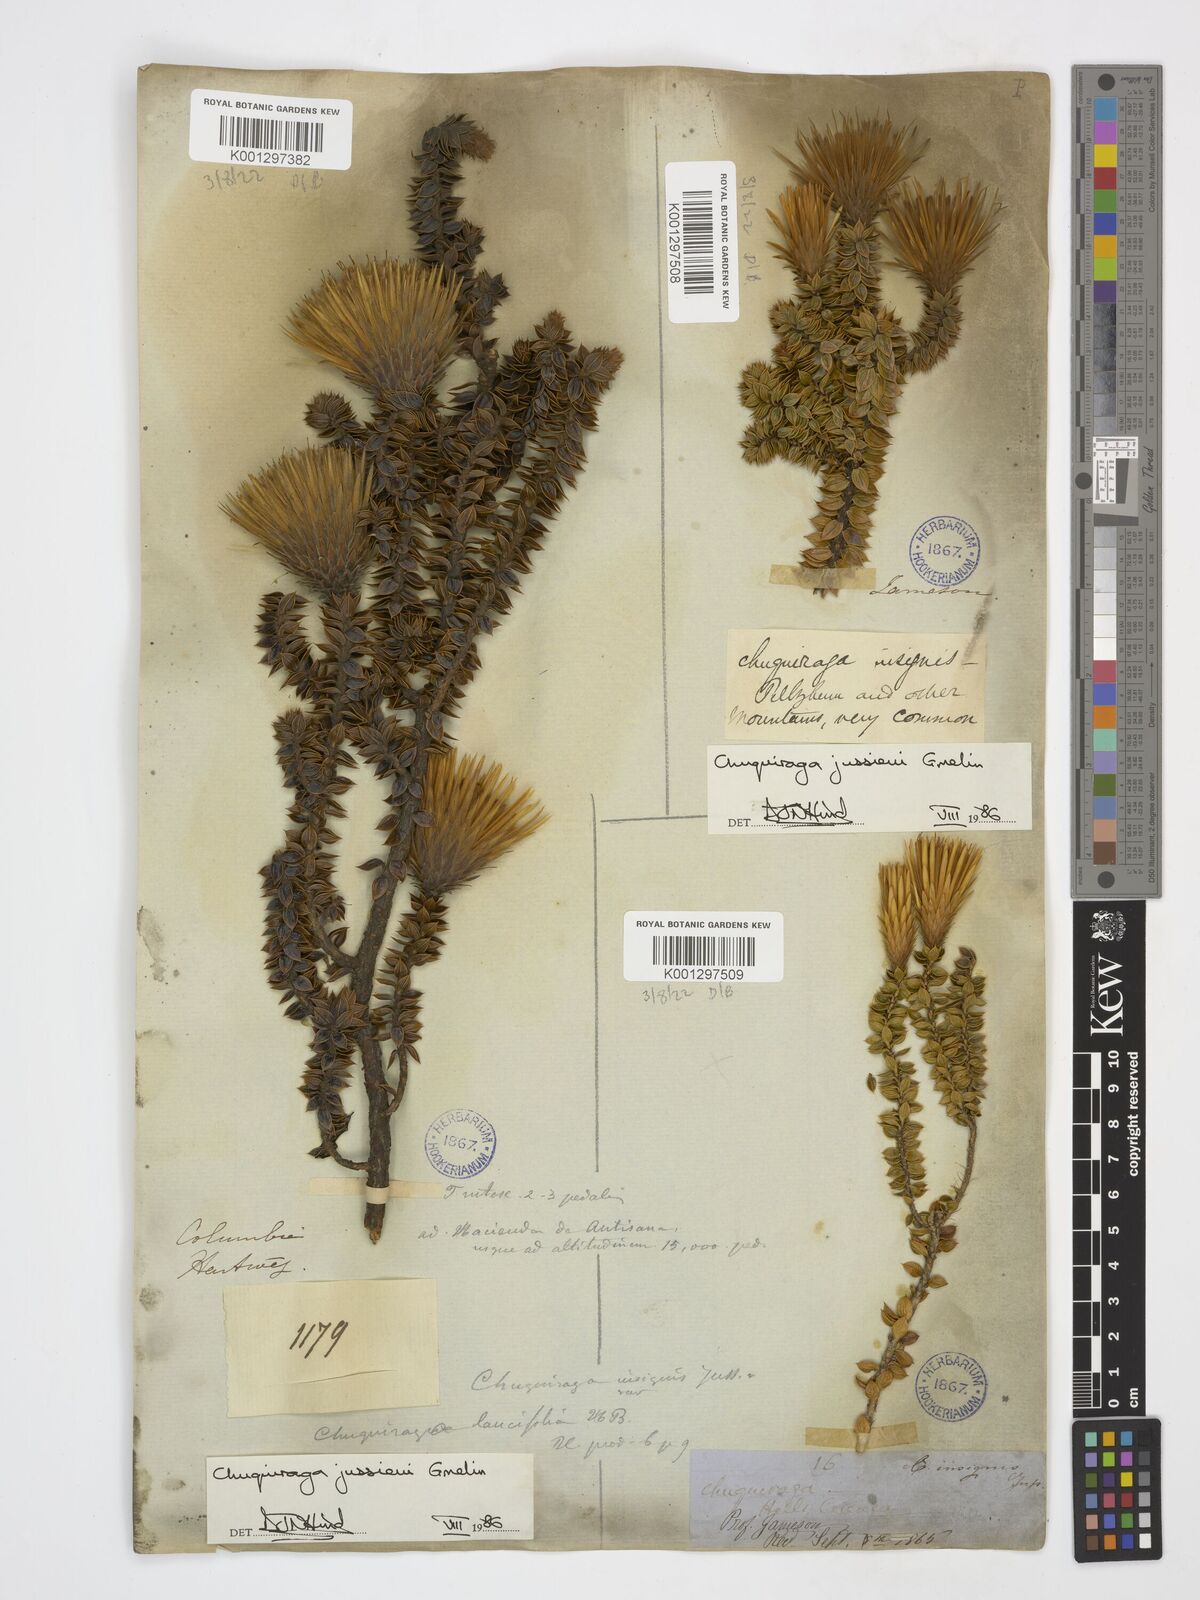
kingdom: Plantae
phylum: Tracheophyta
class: Magnoliopsida
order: Asterales
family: Asteraceae
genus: Chuquiraga
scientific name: Chuquiraga jussieui
